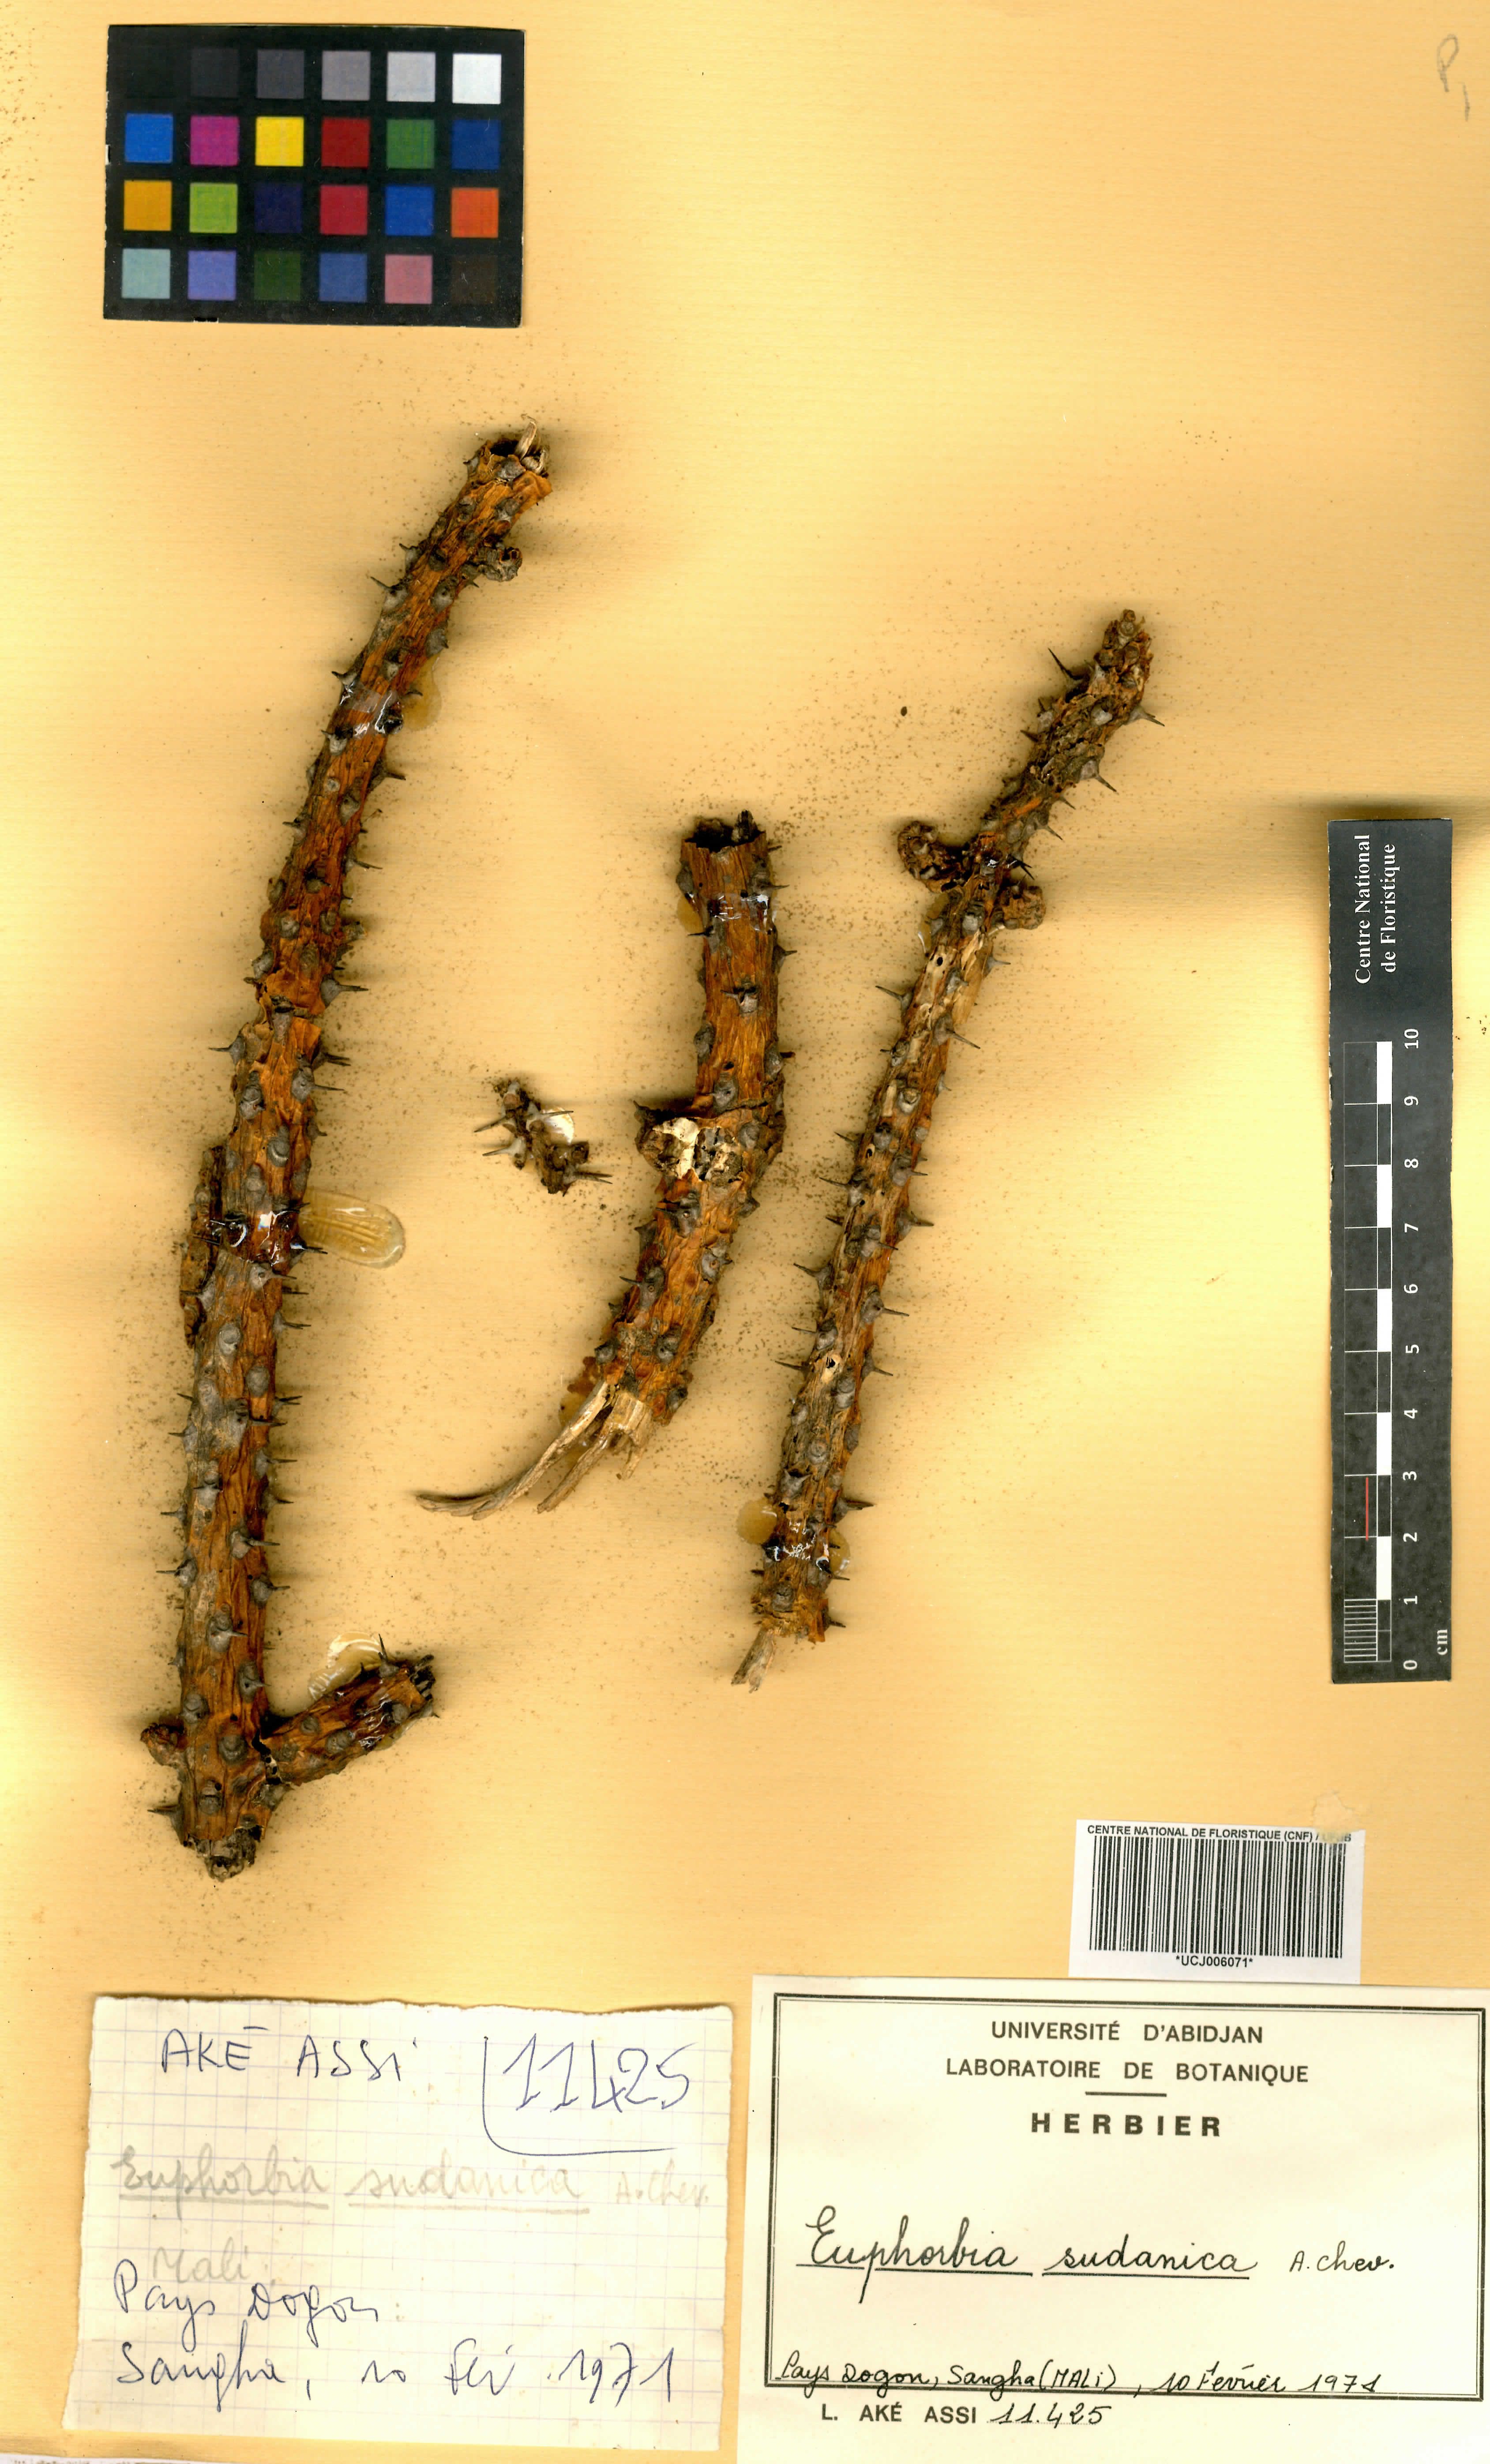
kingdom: Plantae
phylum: Tracheophyta
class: Magnoliopsida
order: Malpighiales
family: Euphorbiaceae
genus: Euphorbia
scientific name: Euphorbia sudanica
